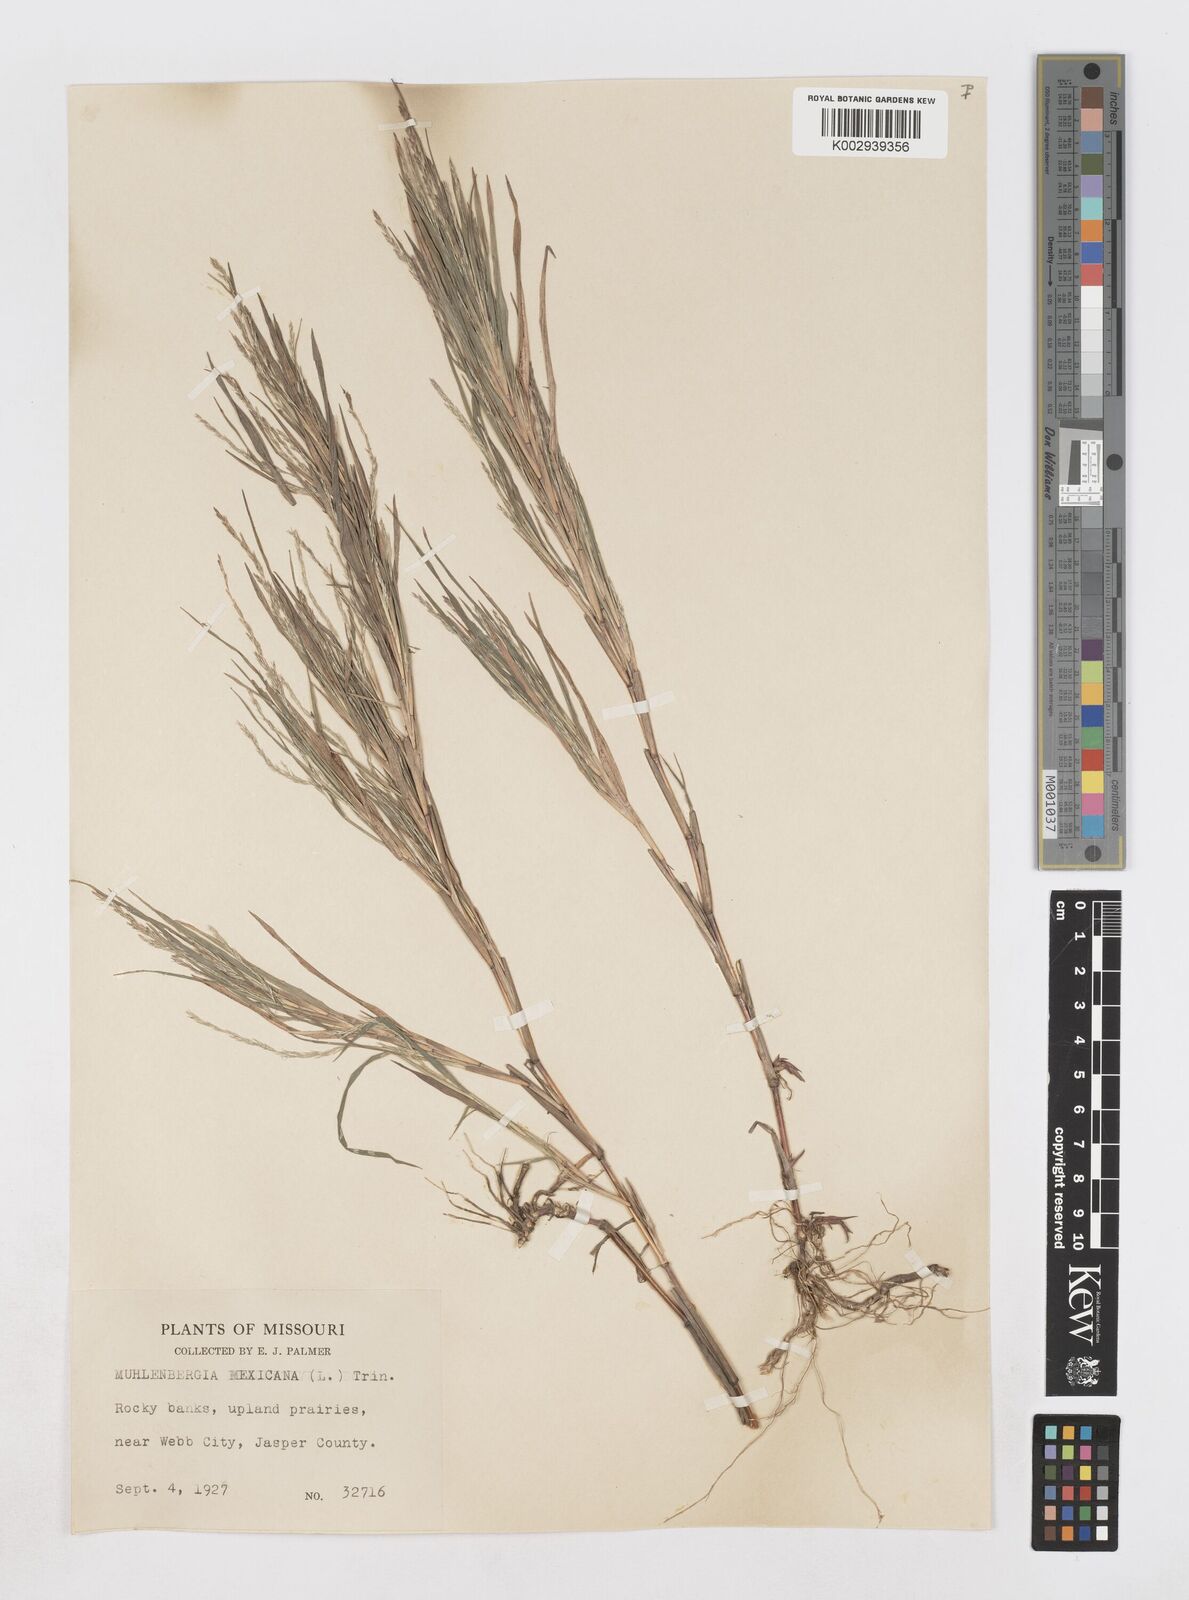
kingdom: Plantae
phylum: Tracheophyta
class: Liliopsida
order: Poales
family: Poaceae
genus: Muhlenbergia
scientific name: Muhlenbergia mexicana
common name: Mexican muhly
